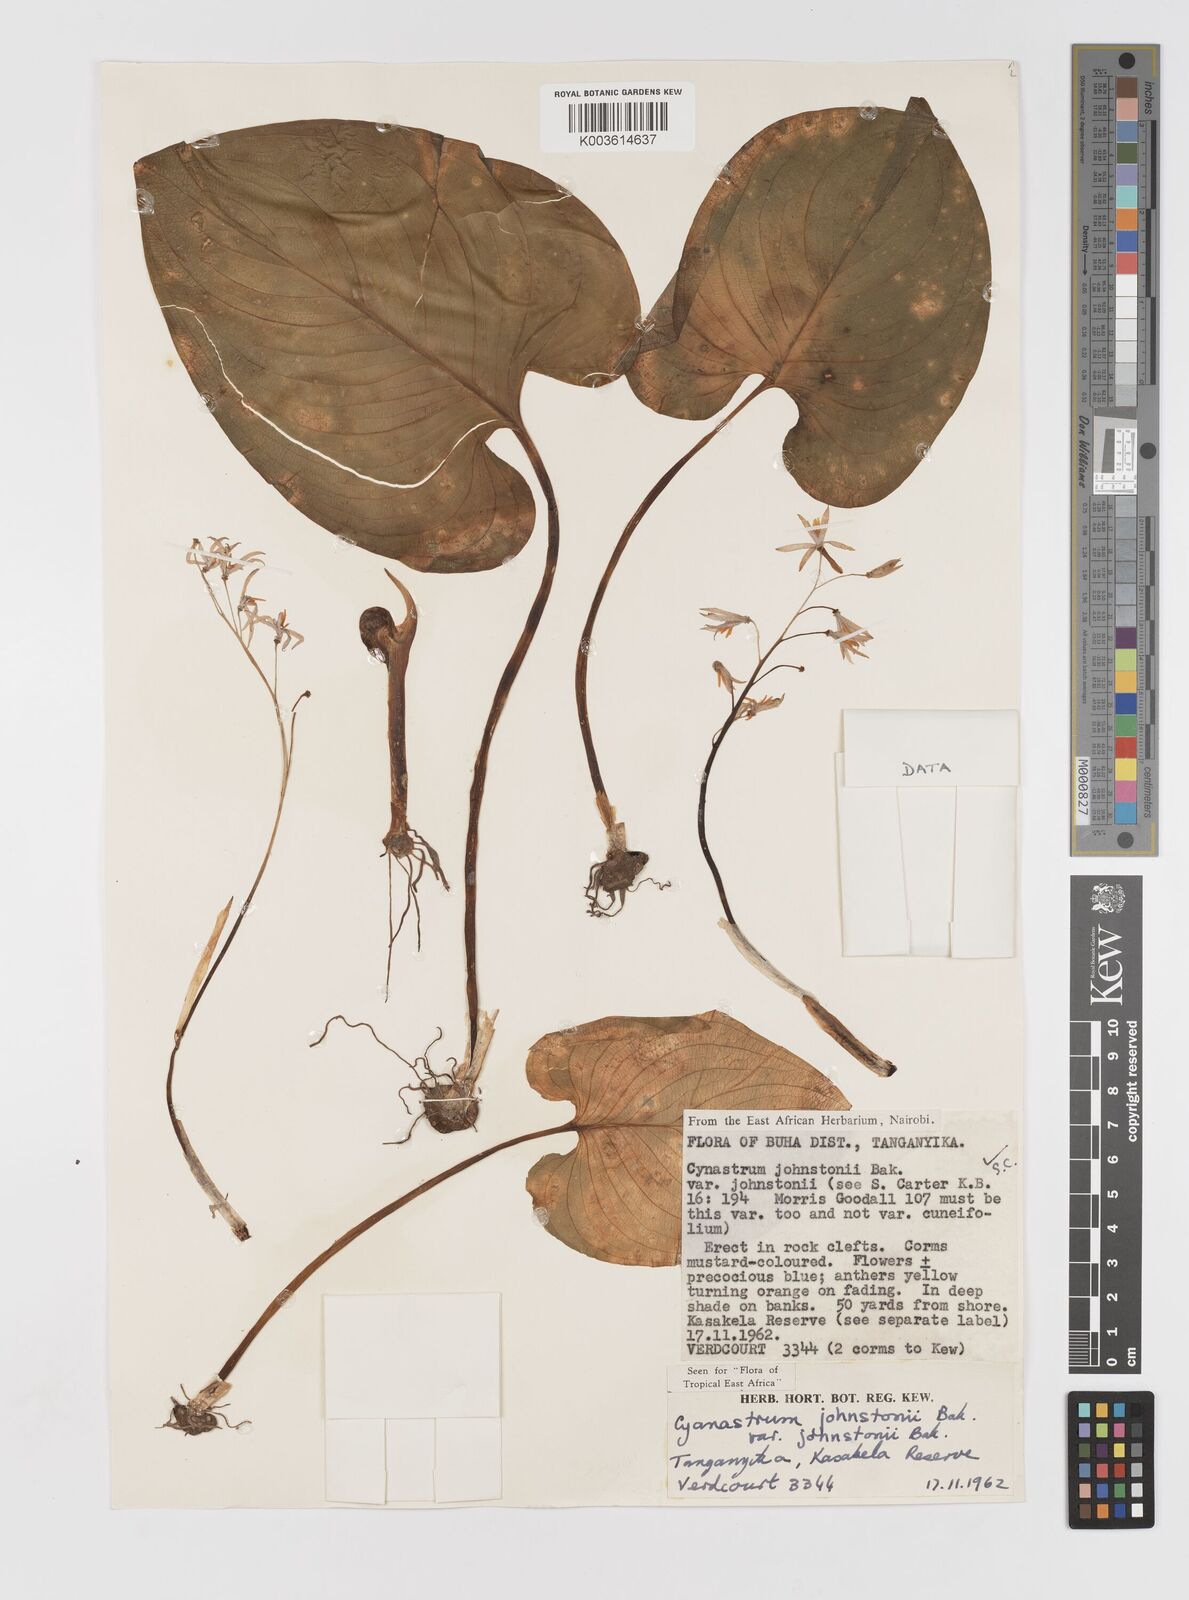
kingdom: Plantae
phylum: Tracheophyta
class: Liliopsida
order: Asparagales
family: Tecophilaeaceae
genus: Cyanastrum
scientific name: Cyanastrum johnstonii
